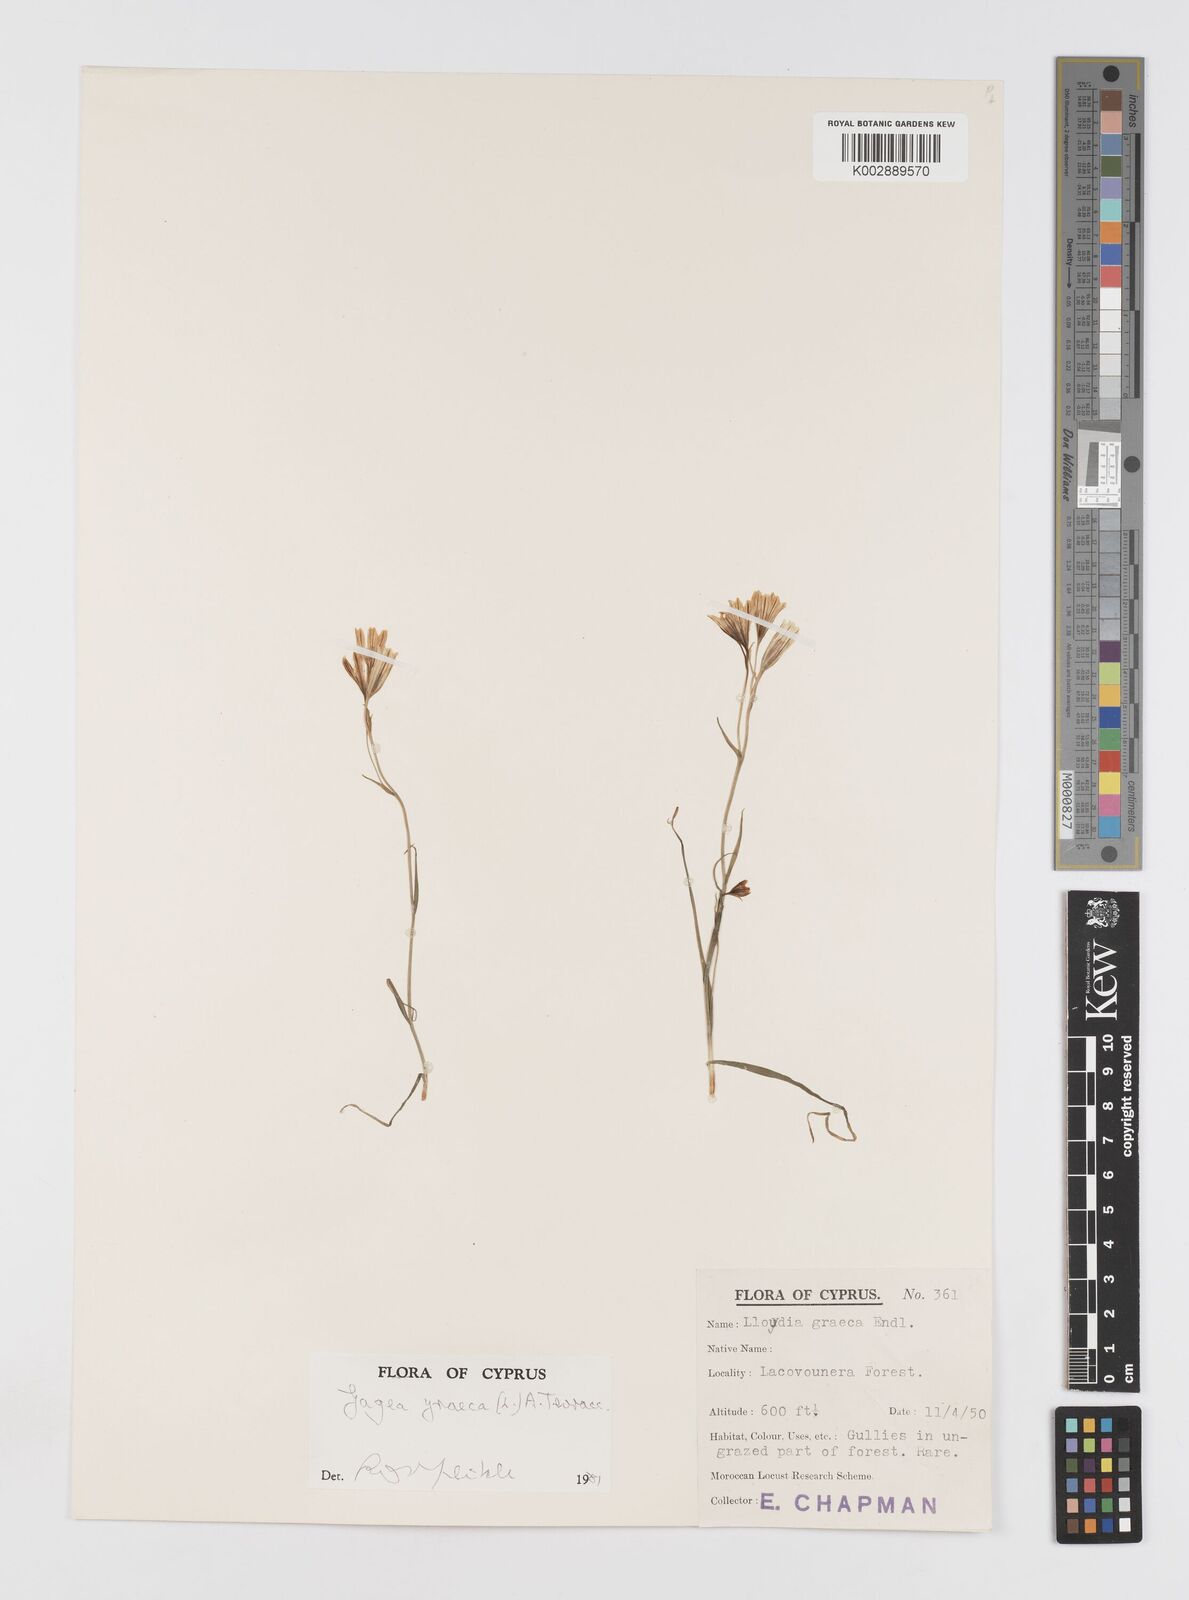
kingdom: Plantae
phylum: Tracheophyta
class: Liliopsida
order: Liliales
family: Liliaceae
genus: Gagea
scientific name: Gagea graeca
